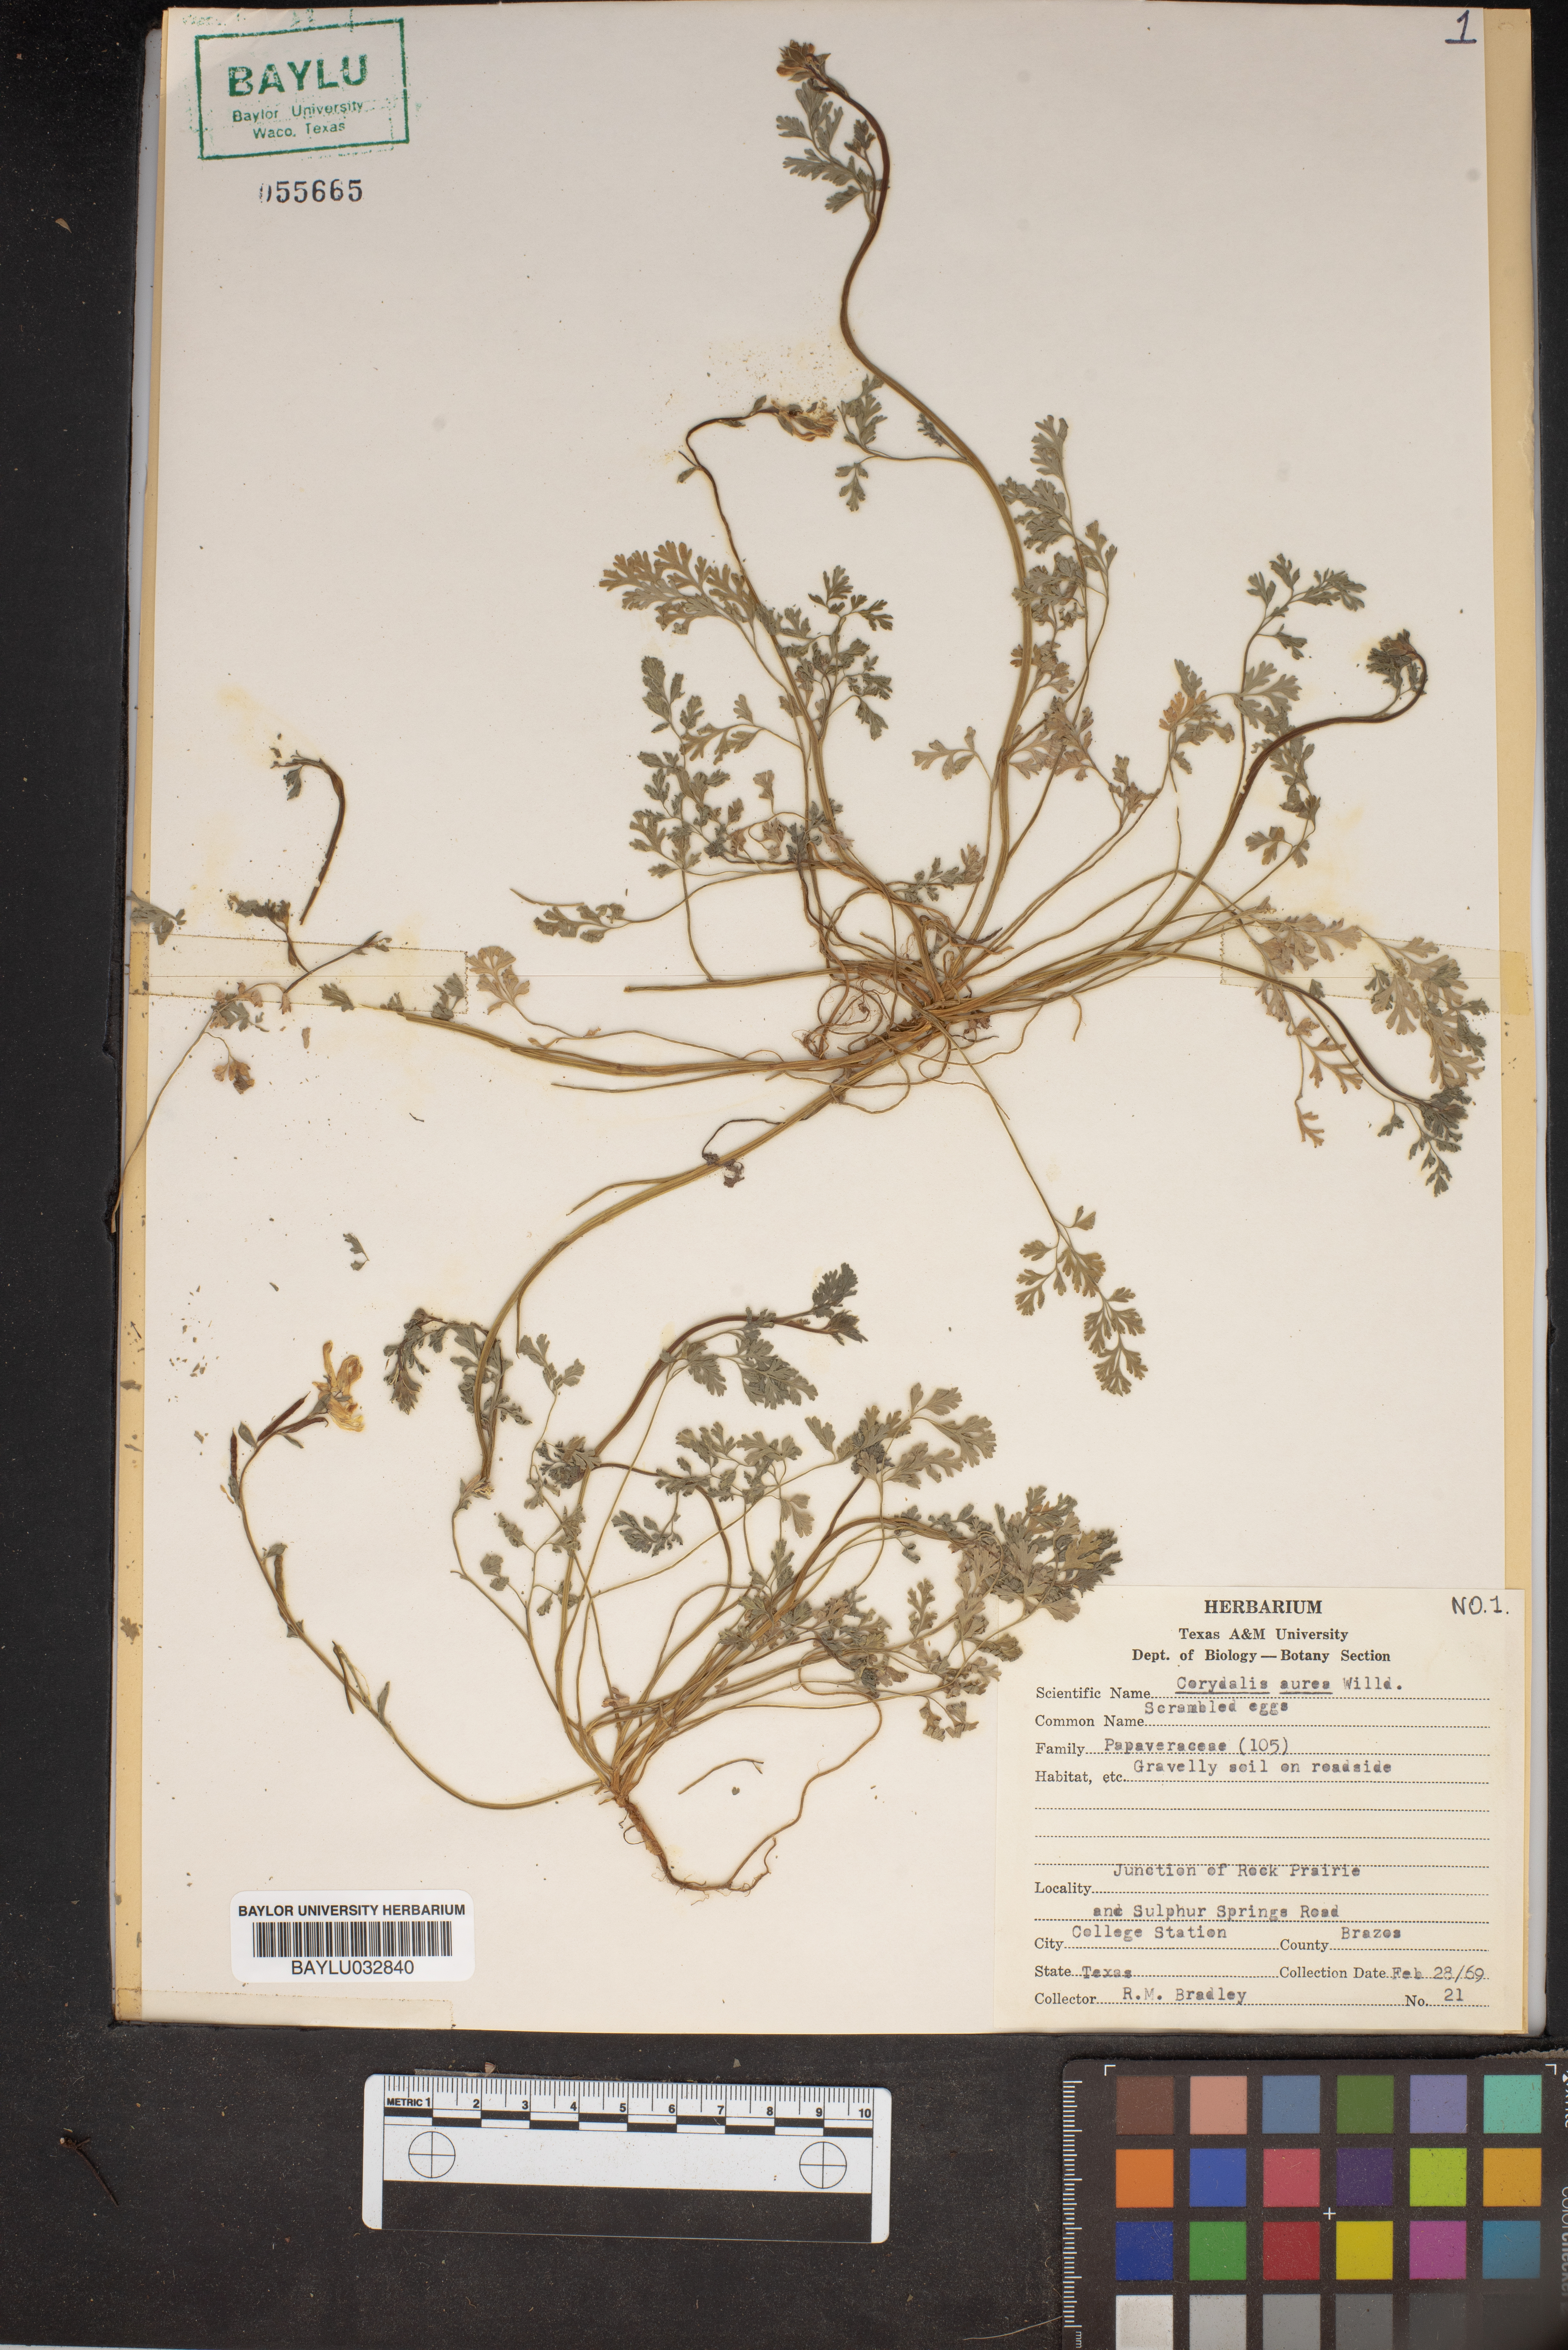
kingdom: Plantae
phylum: Tracheophyta
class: Magnoliopsida
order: Ranunculales
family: Papaveraceae
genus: Corydalis
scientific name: Corydalis aurea
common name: Golden corydalis
